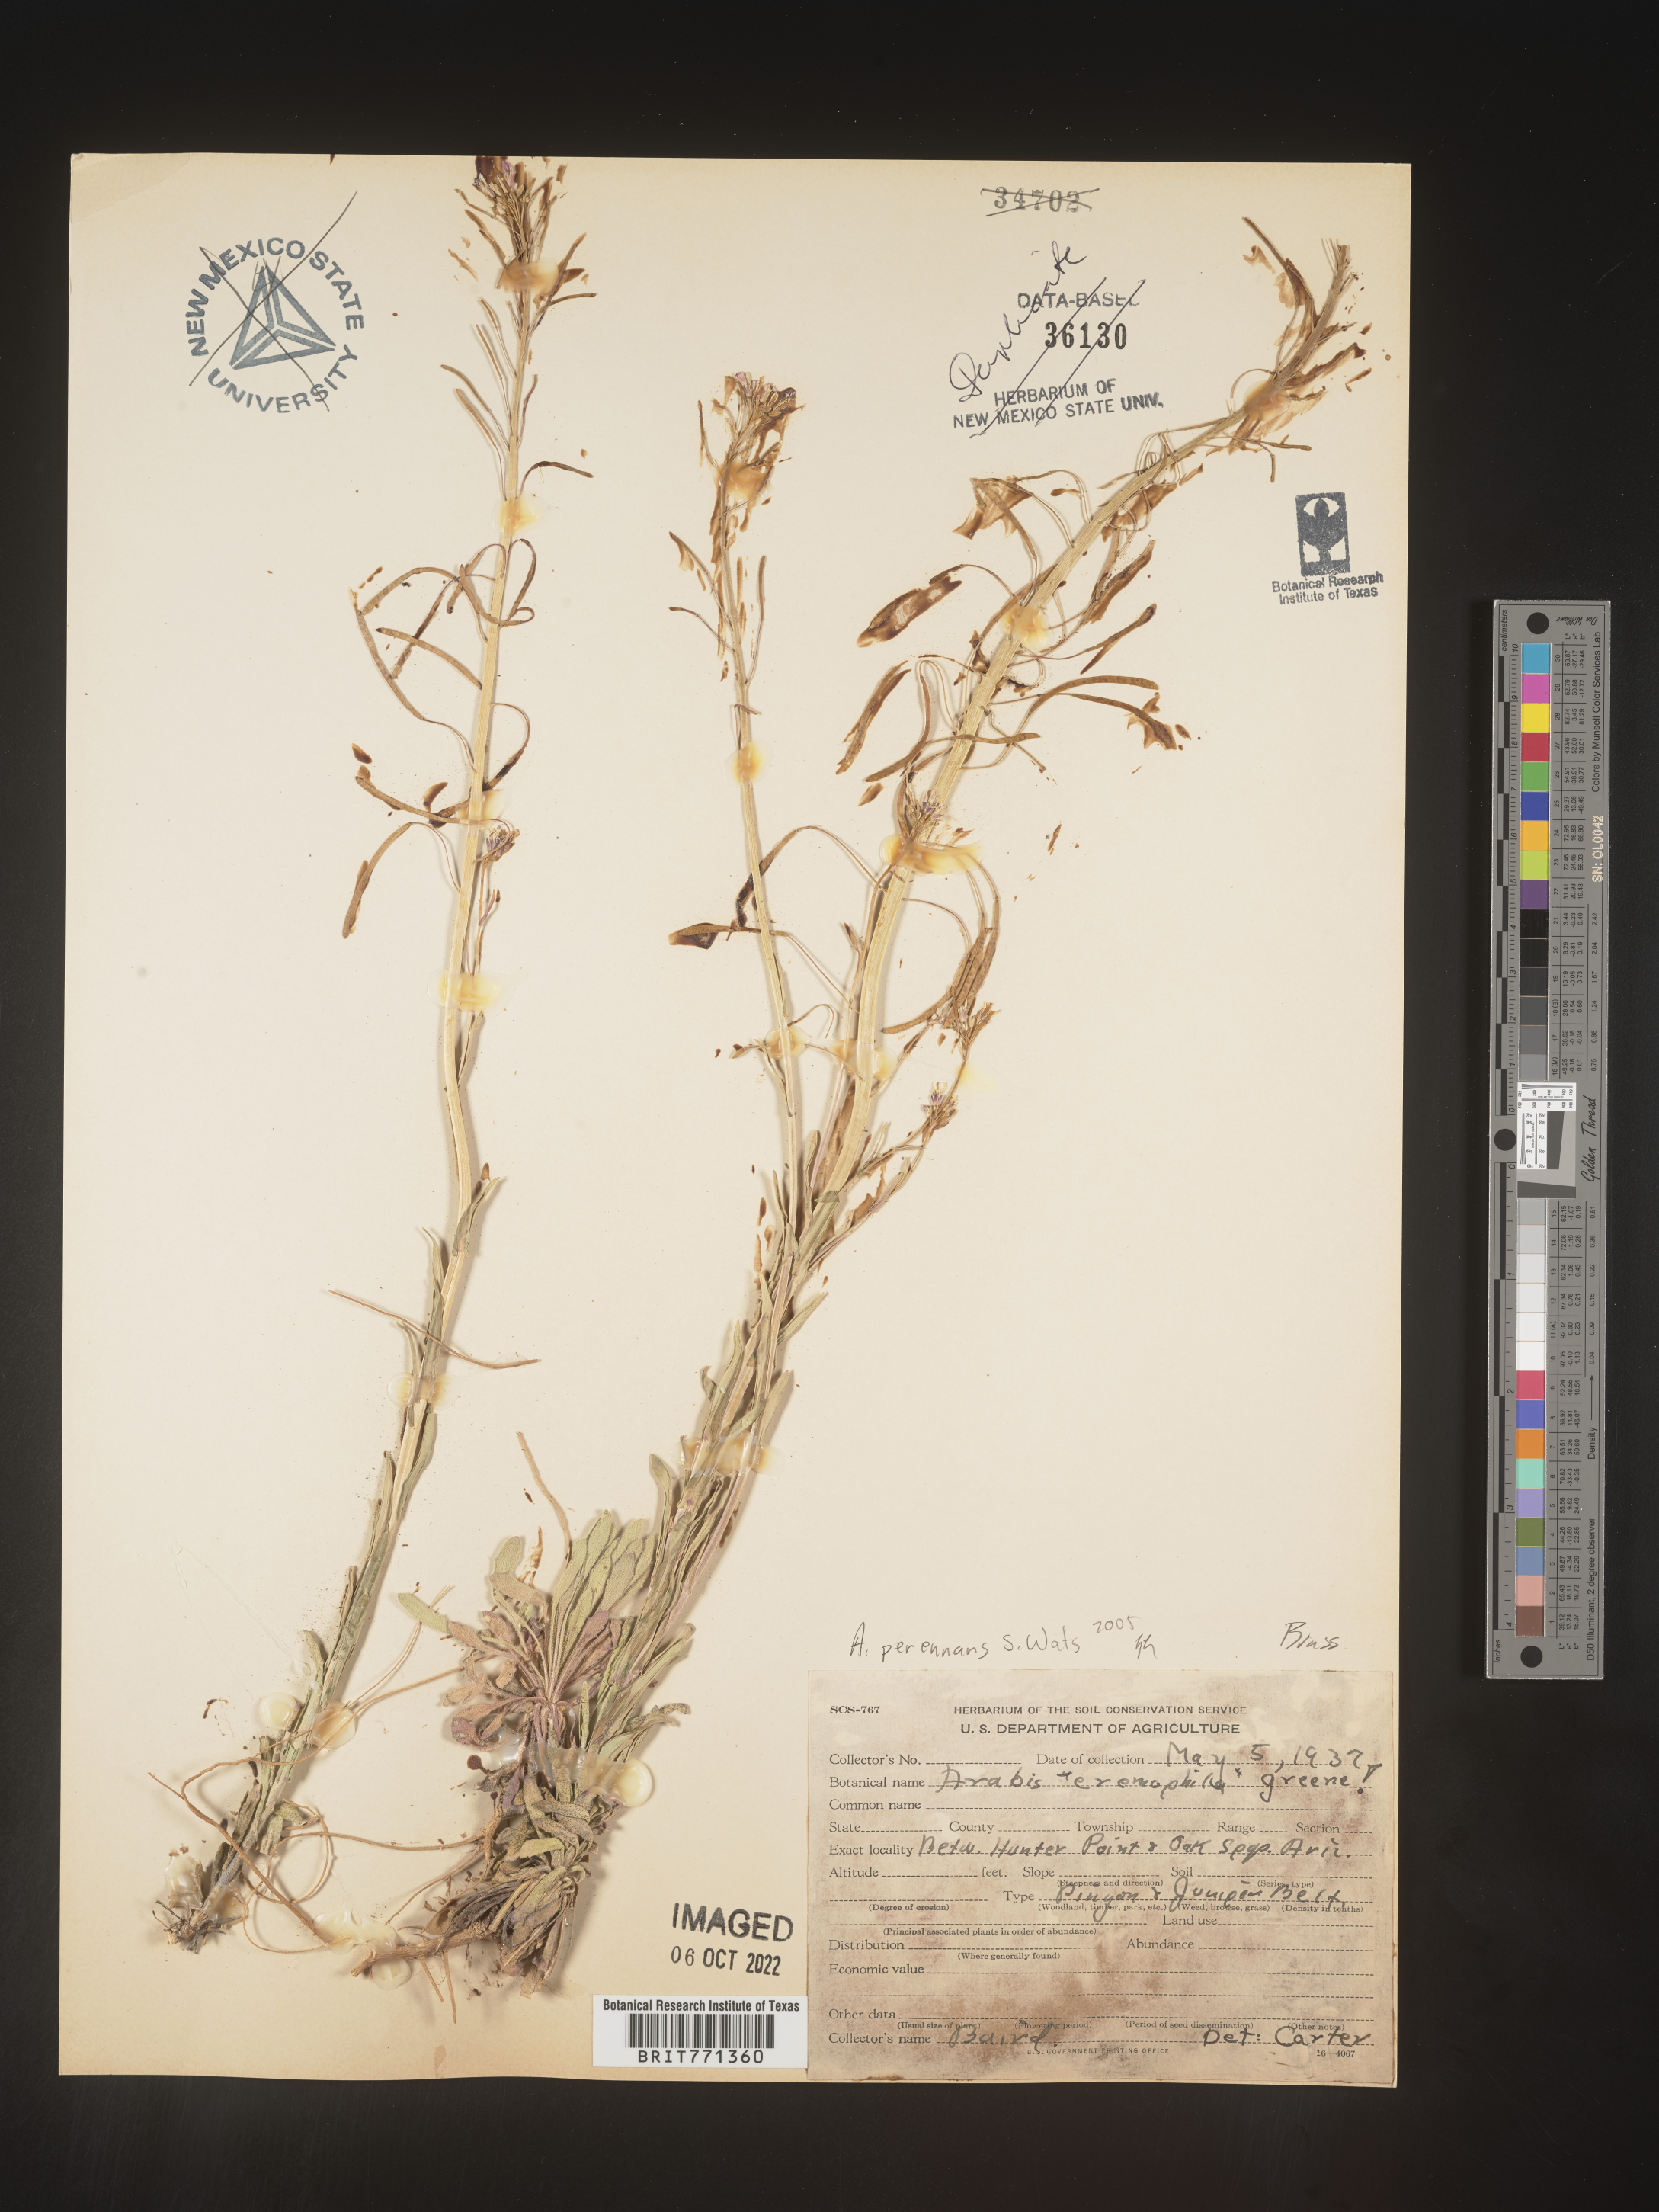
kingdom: Plantae
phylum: Tracheophyta
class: Magnoliopsida
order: Brassicales
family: Brassicaceae
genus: Arabis
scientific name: Arabis
